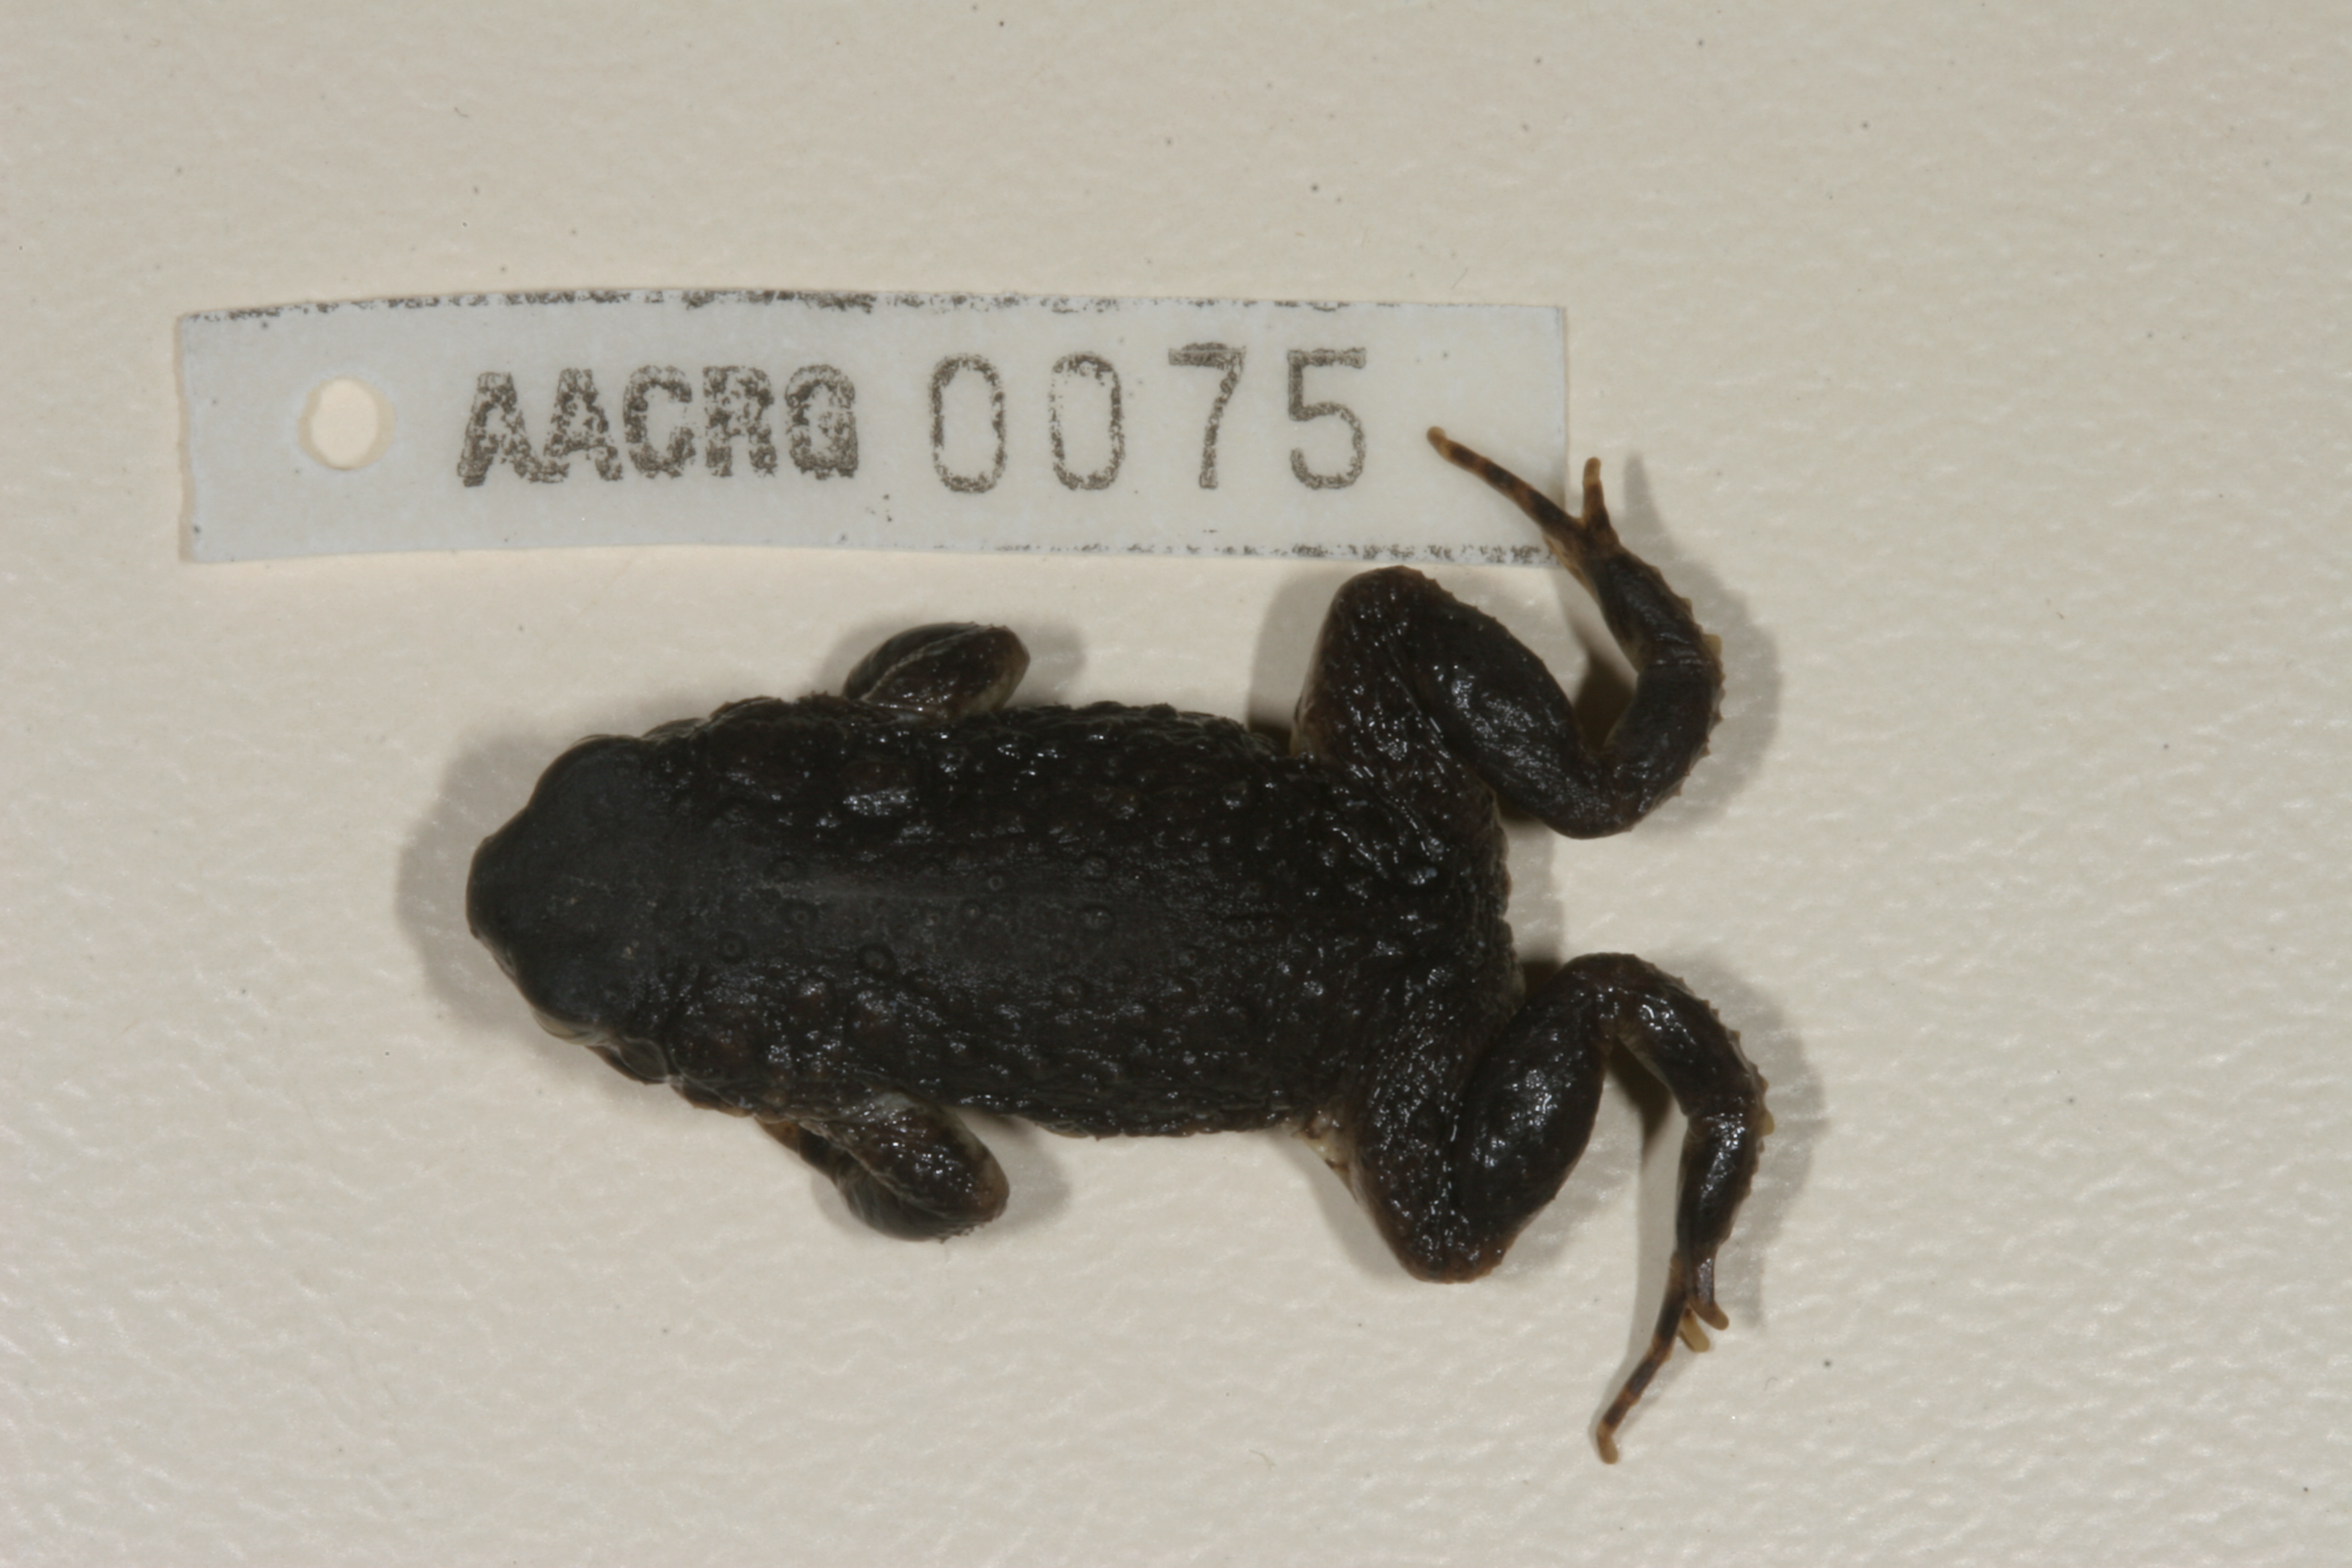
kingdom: Animalia
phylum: Chordata
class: Amphibia
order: Anura
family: Bufonidae
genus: Vandijkophrynus
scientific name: Vandijkophrynus gariepensis
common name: Gariep toad
